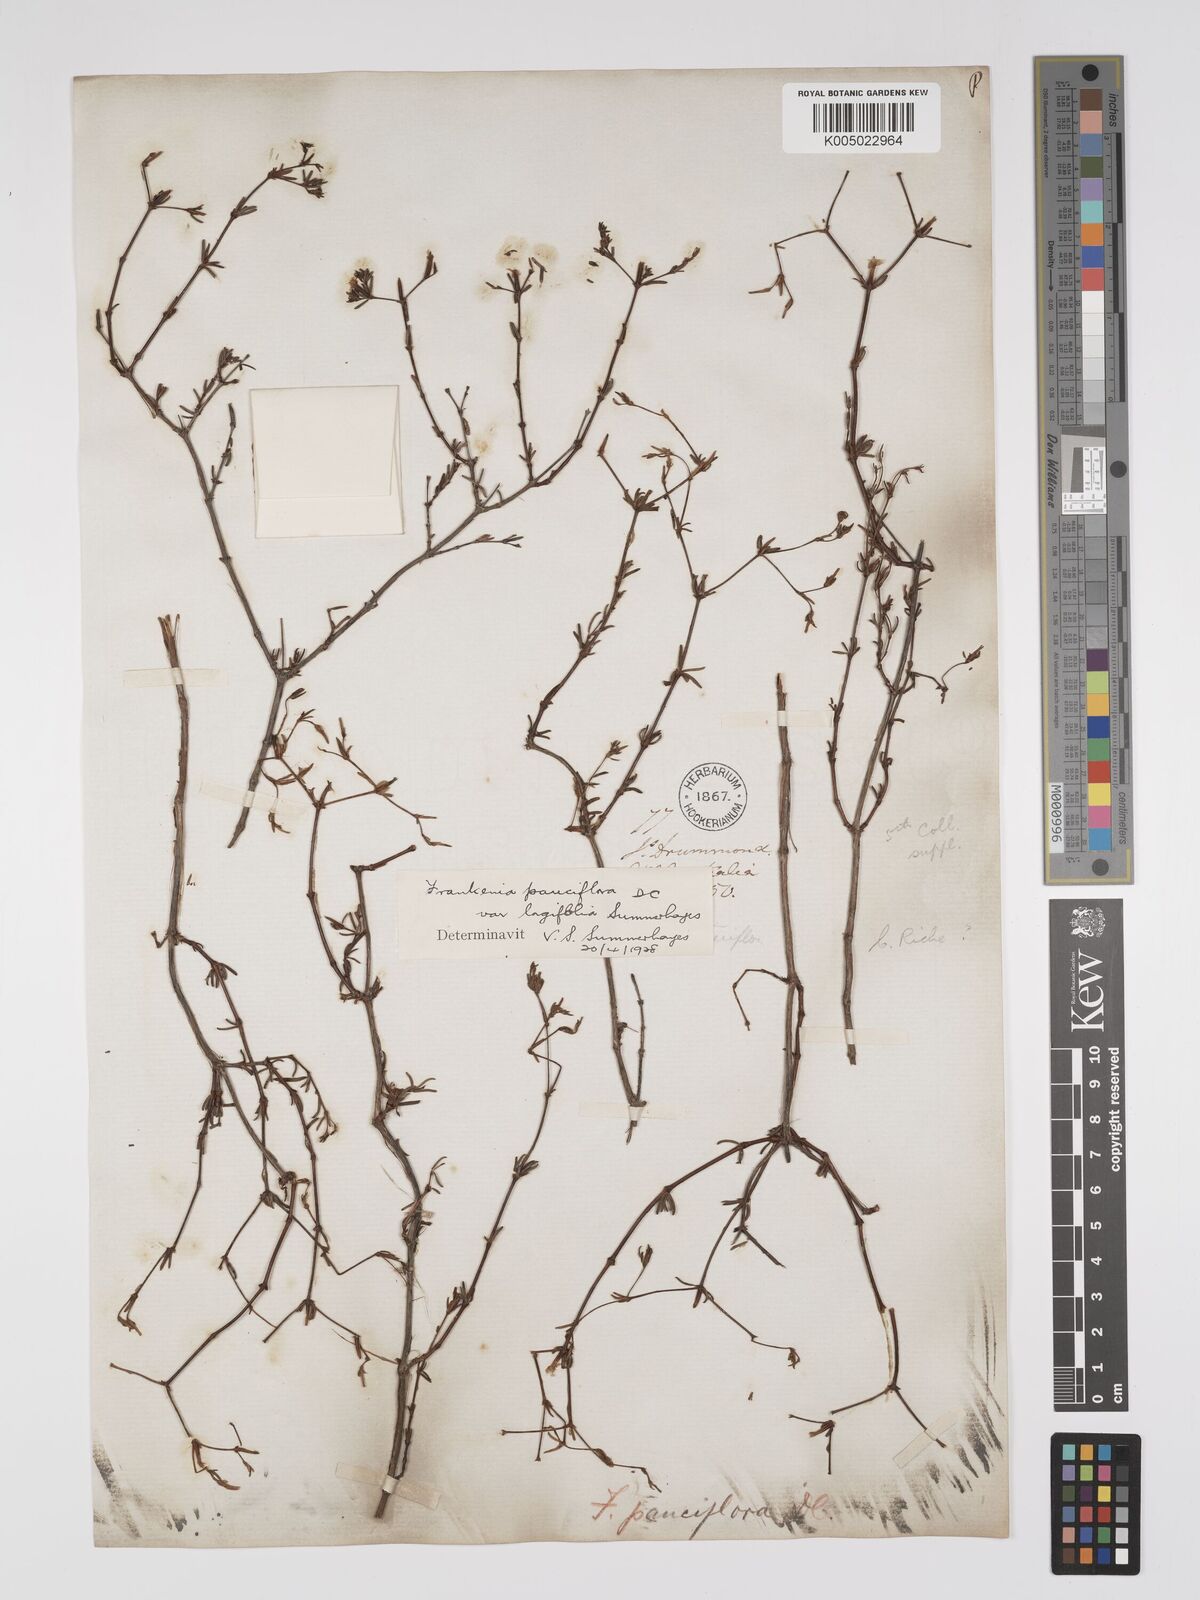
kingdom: Plantae
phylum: Tracheophyta
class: Magnoliopsida
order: Caryophyllales
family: Frankeniaceae
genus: Frankenia
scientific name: Frankenia pauciflora
